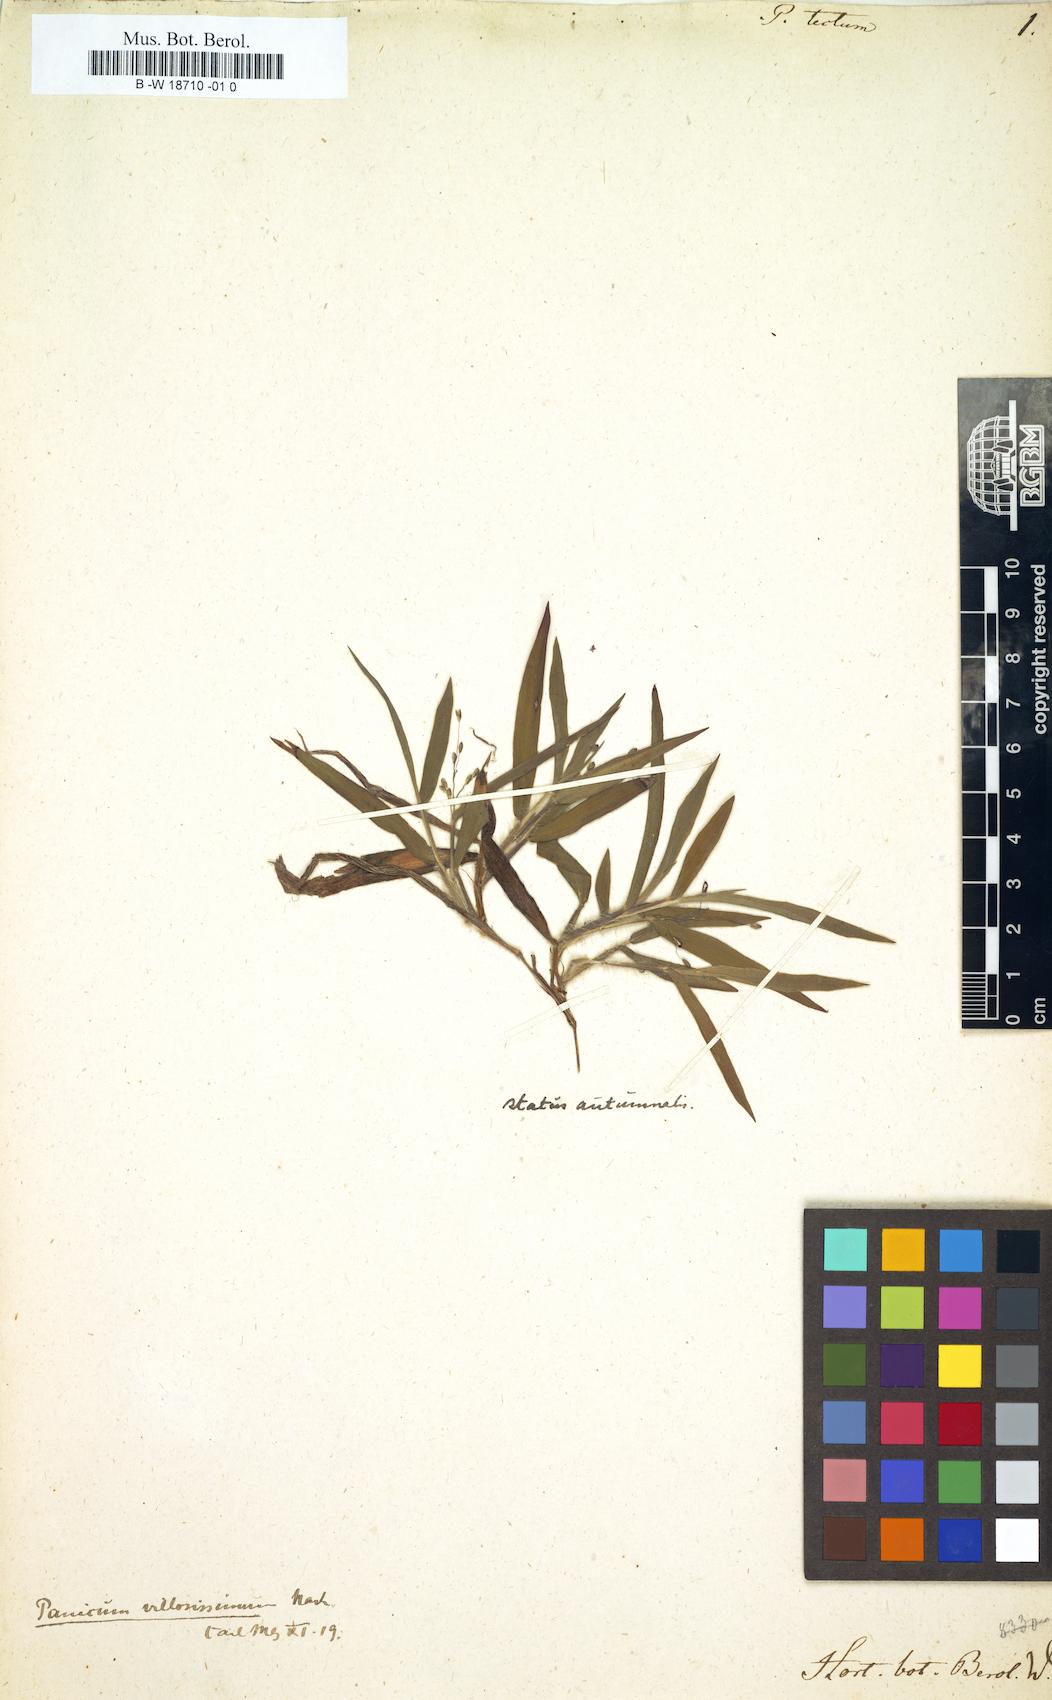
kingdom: Plantae
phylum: Tracheophyta
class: Liliopsida
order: Poales
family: Poaceae
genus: Dichanthelium
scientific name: Dichanthelium acuminatum
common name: Hairy panic grass
